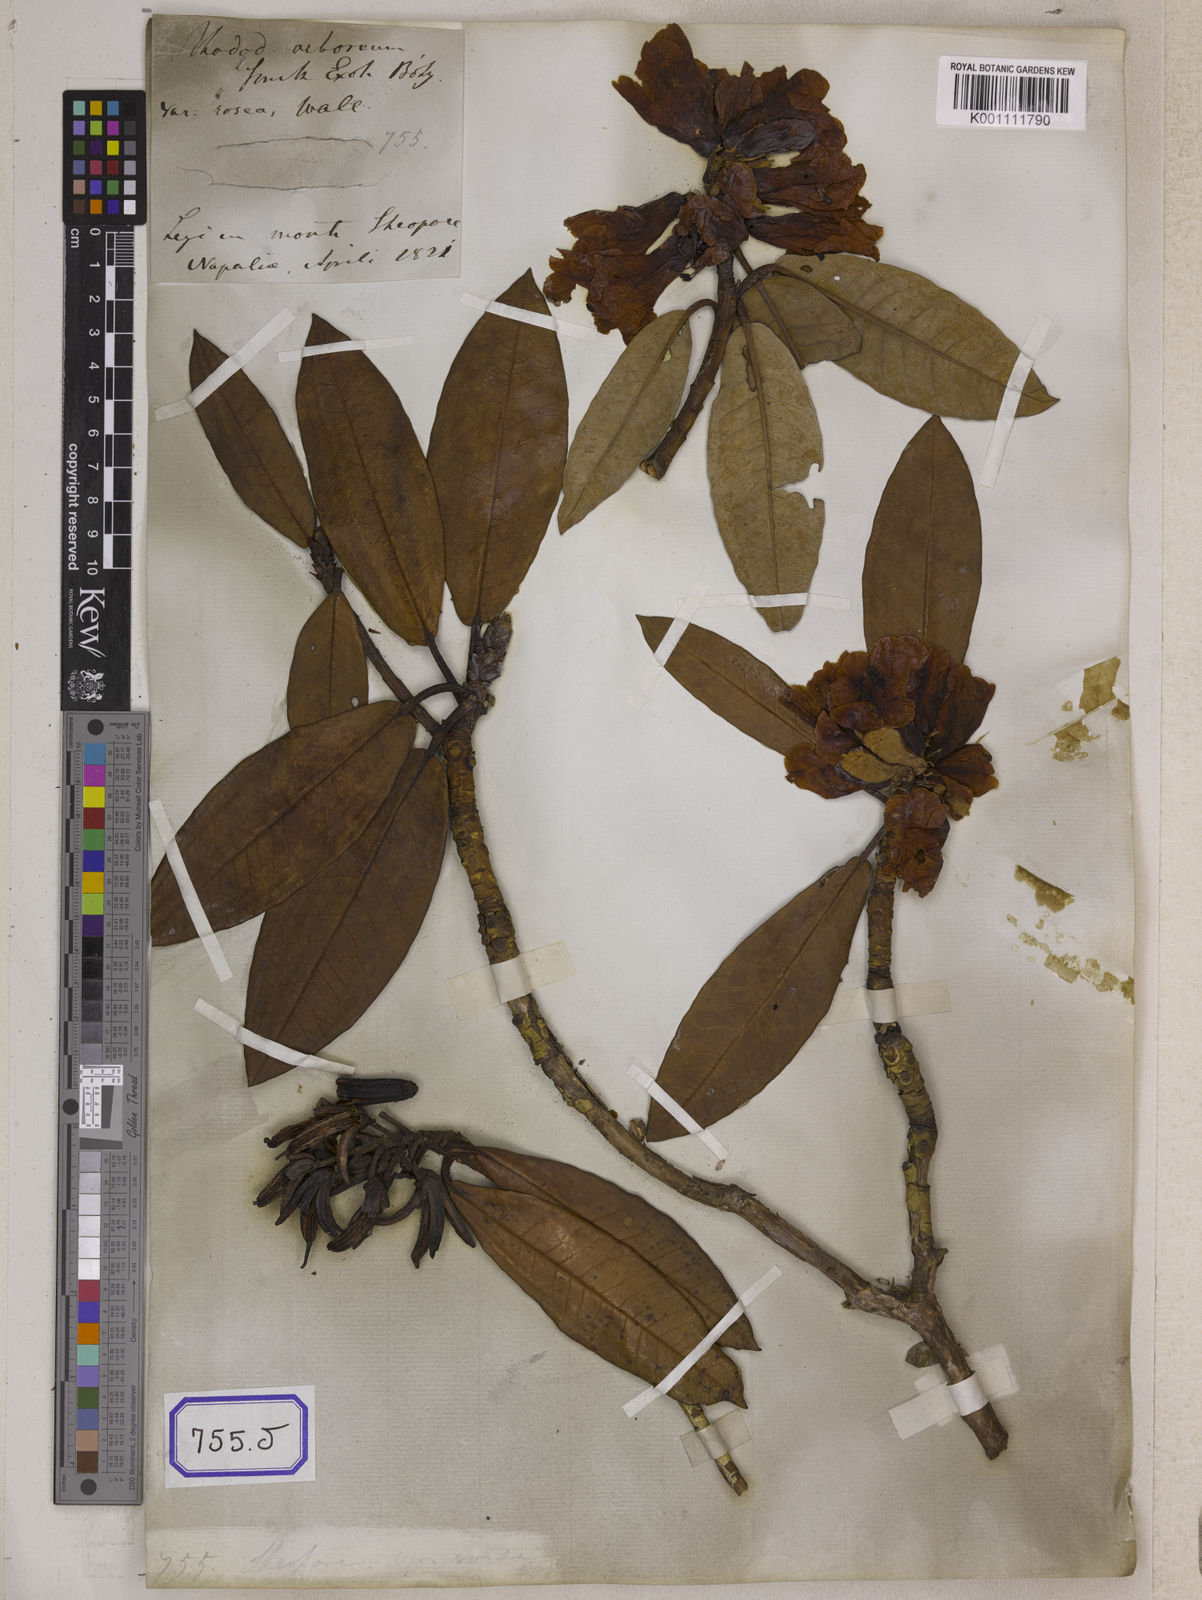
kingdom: Plantae
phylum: Tracheophyta
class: Magnoliopsida
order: Ericales
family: Ericaceae
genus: Rhododendron
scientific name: Rhododendron
